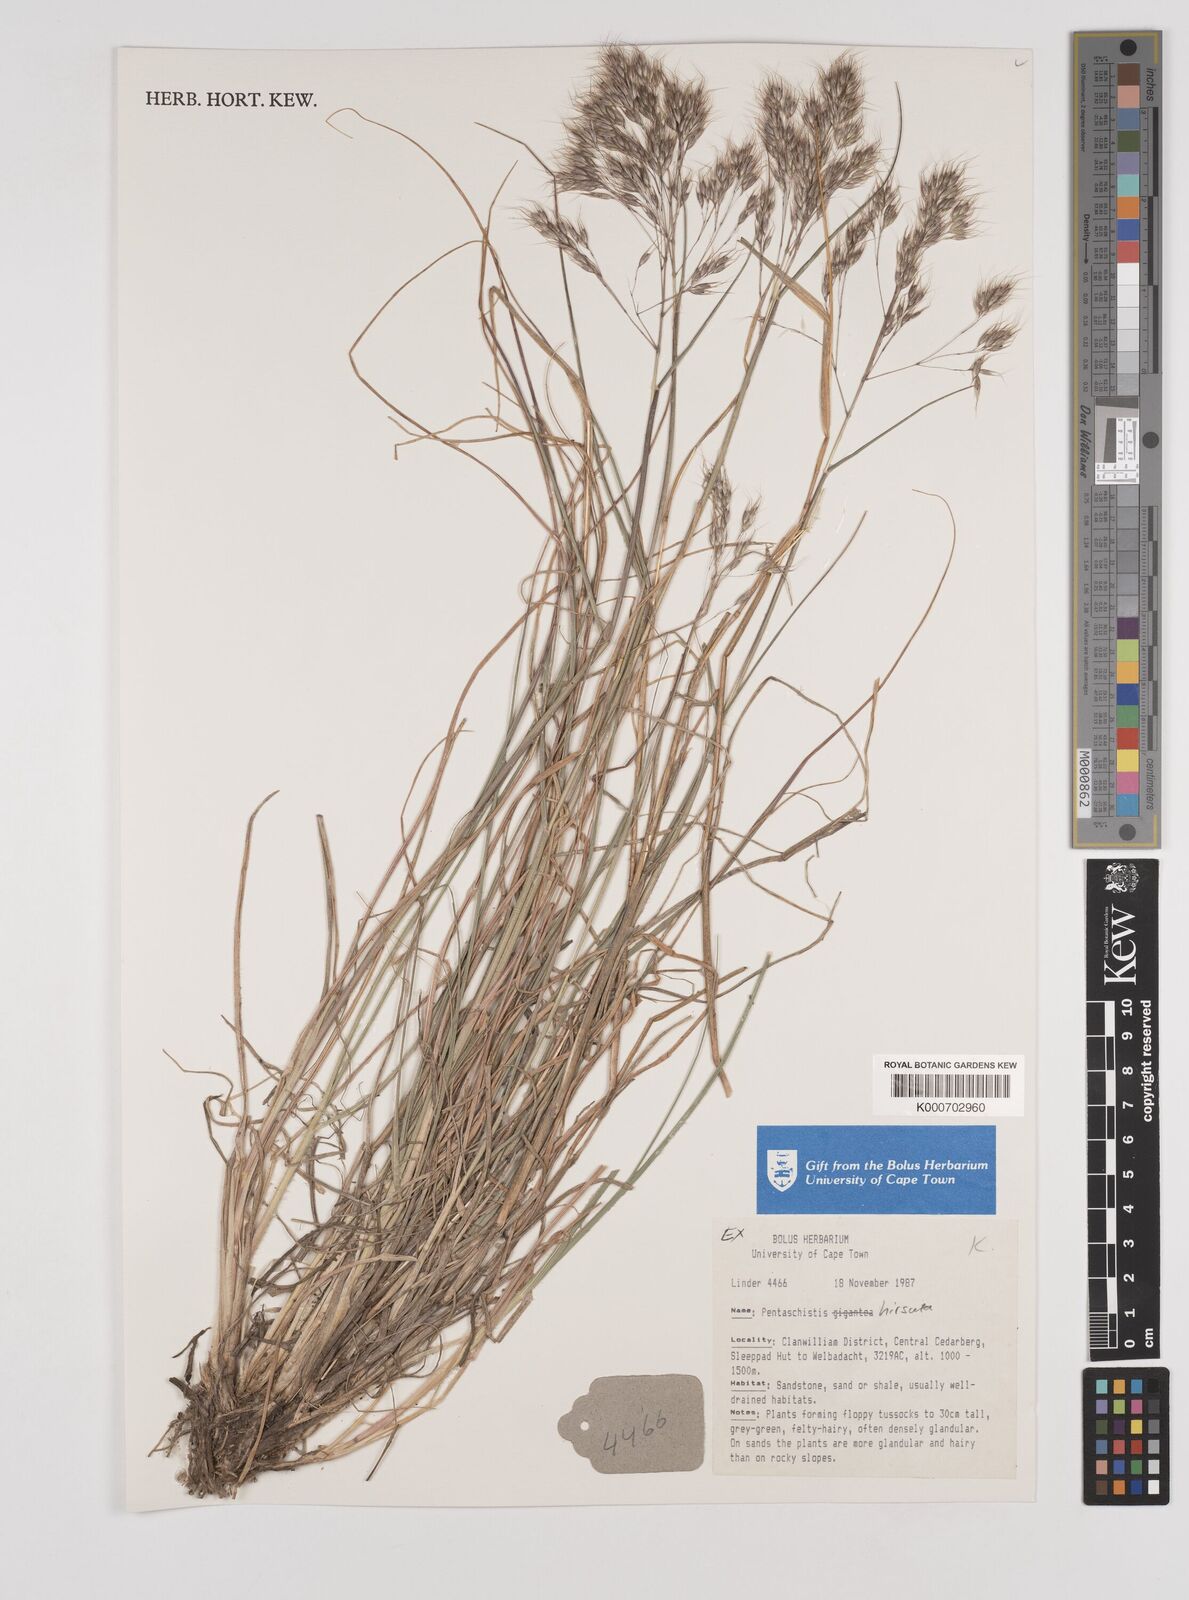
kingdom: Plantae
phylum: Tracheophyta
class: Liliopsida
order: Poales
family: Poaceae
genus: Pentameris
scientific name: Pentameris rupestris
